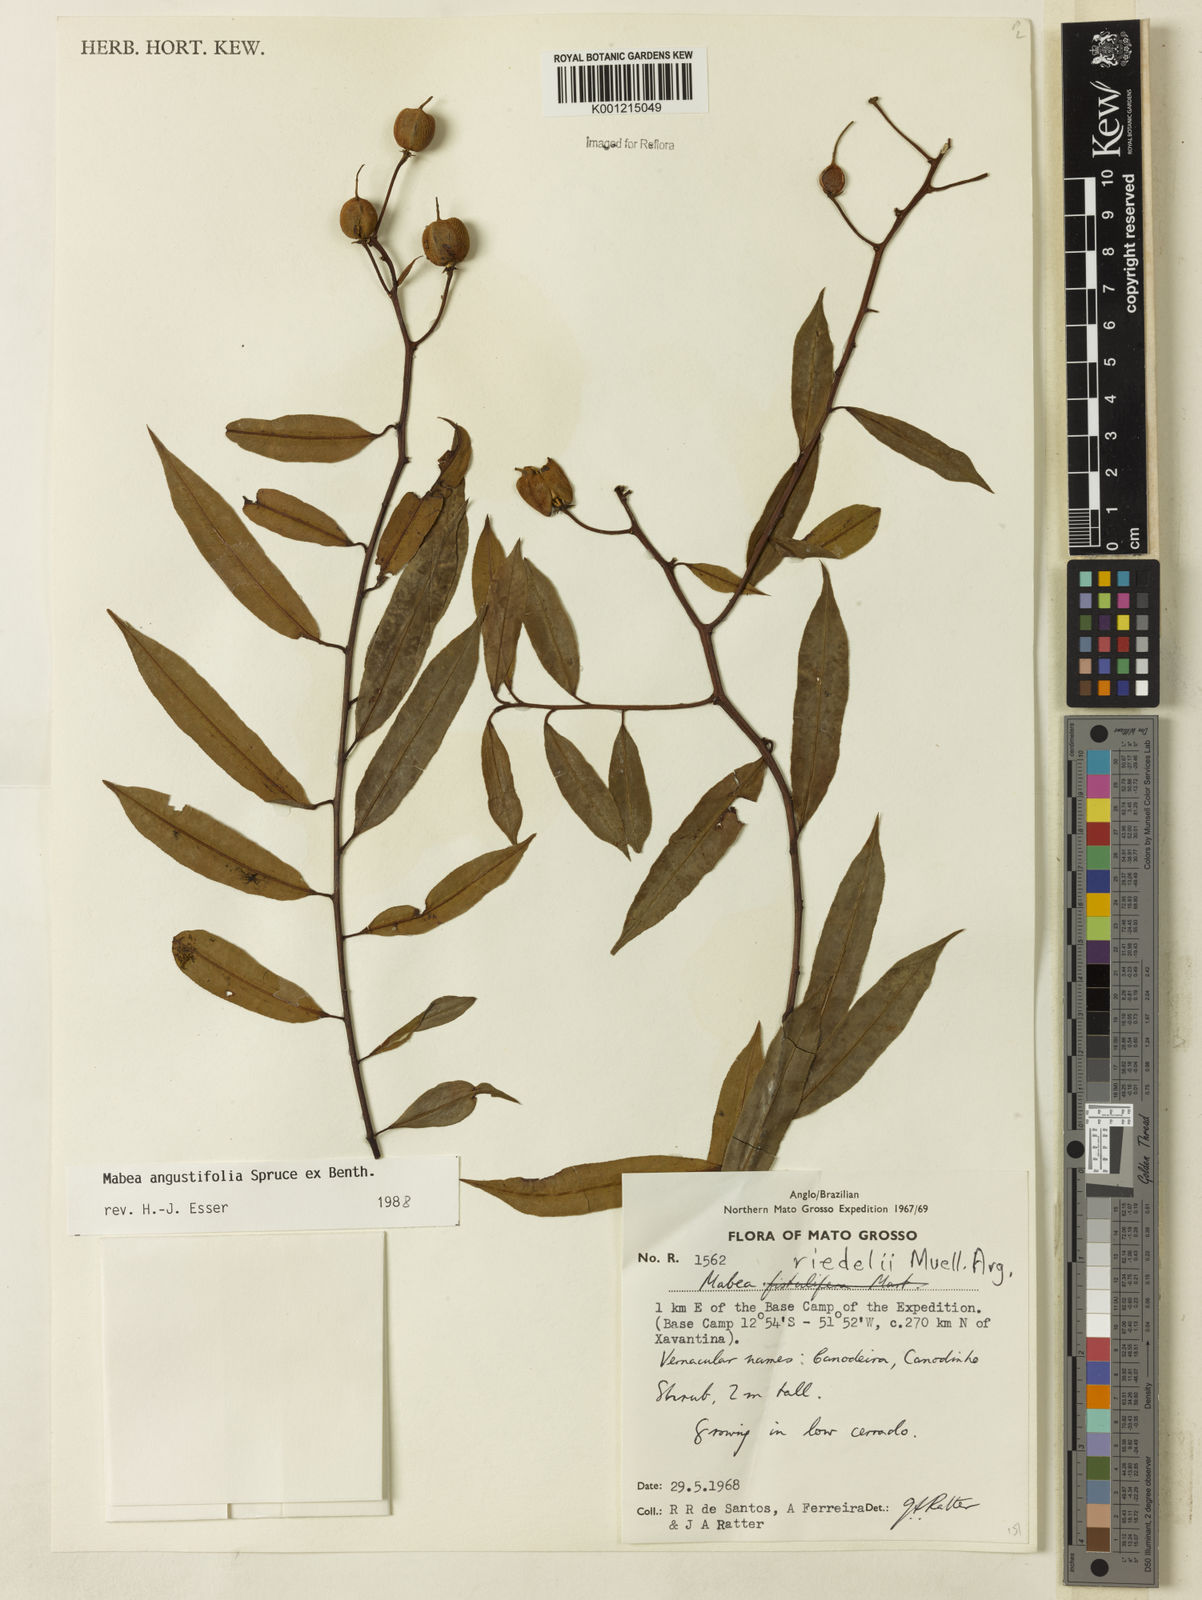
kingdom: Plantae
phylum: Tracheophyta
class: Magnoliopsida
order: Malpighiales
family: Euphorbiaceae
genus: Mabea
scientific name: Mabea
